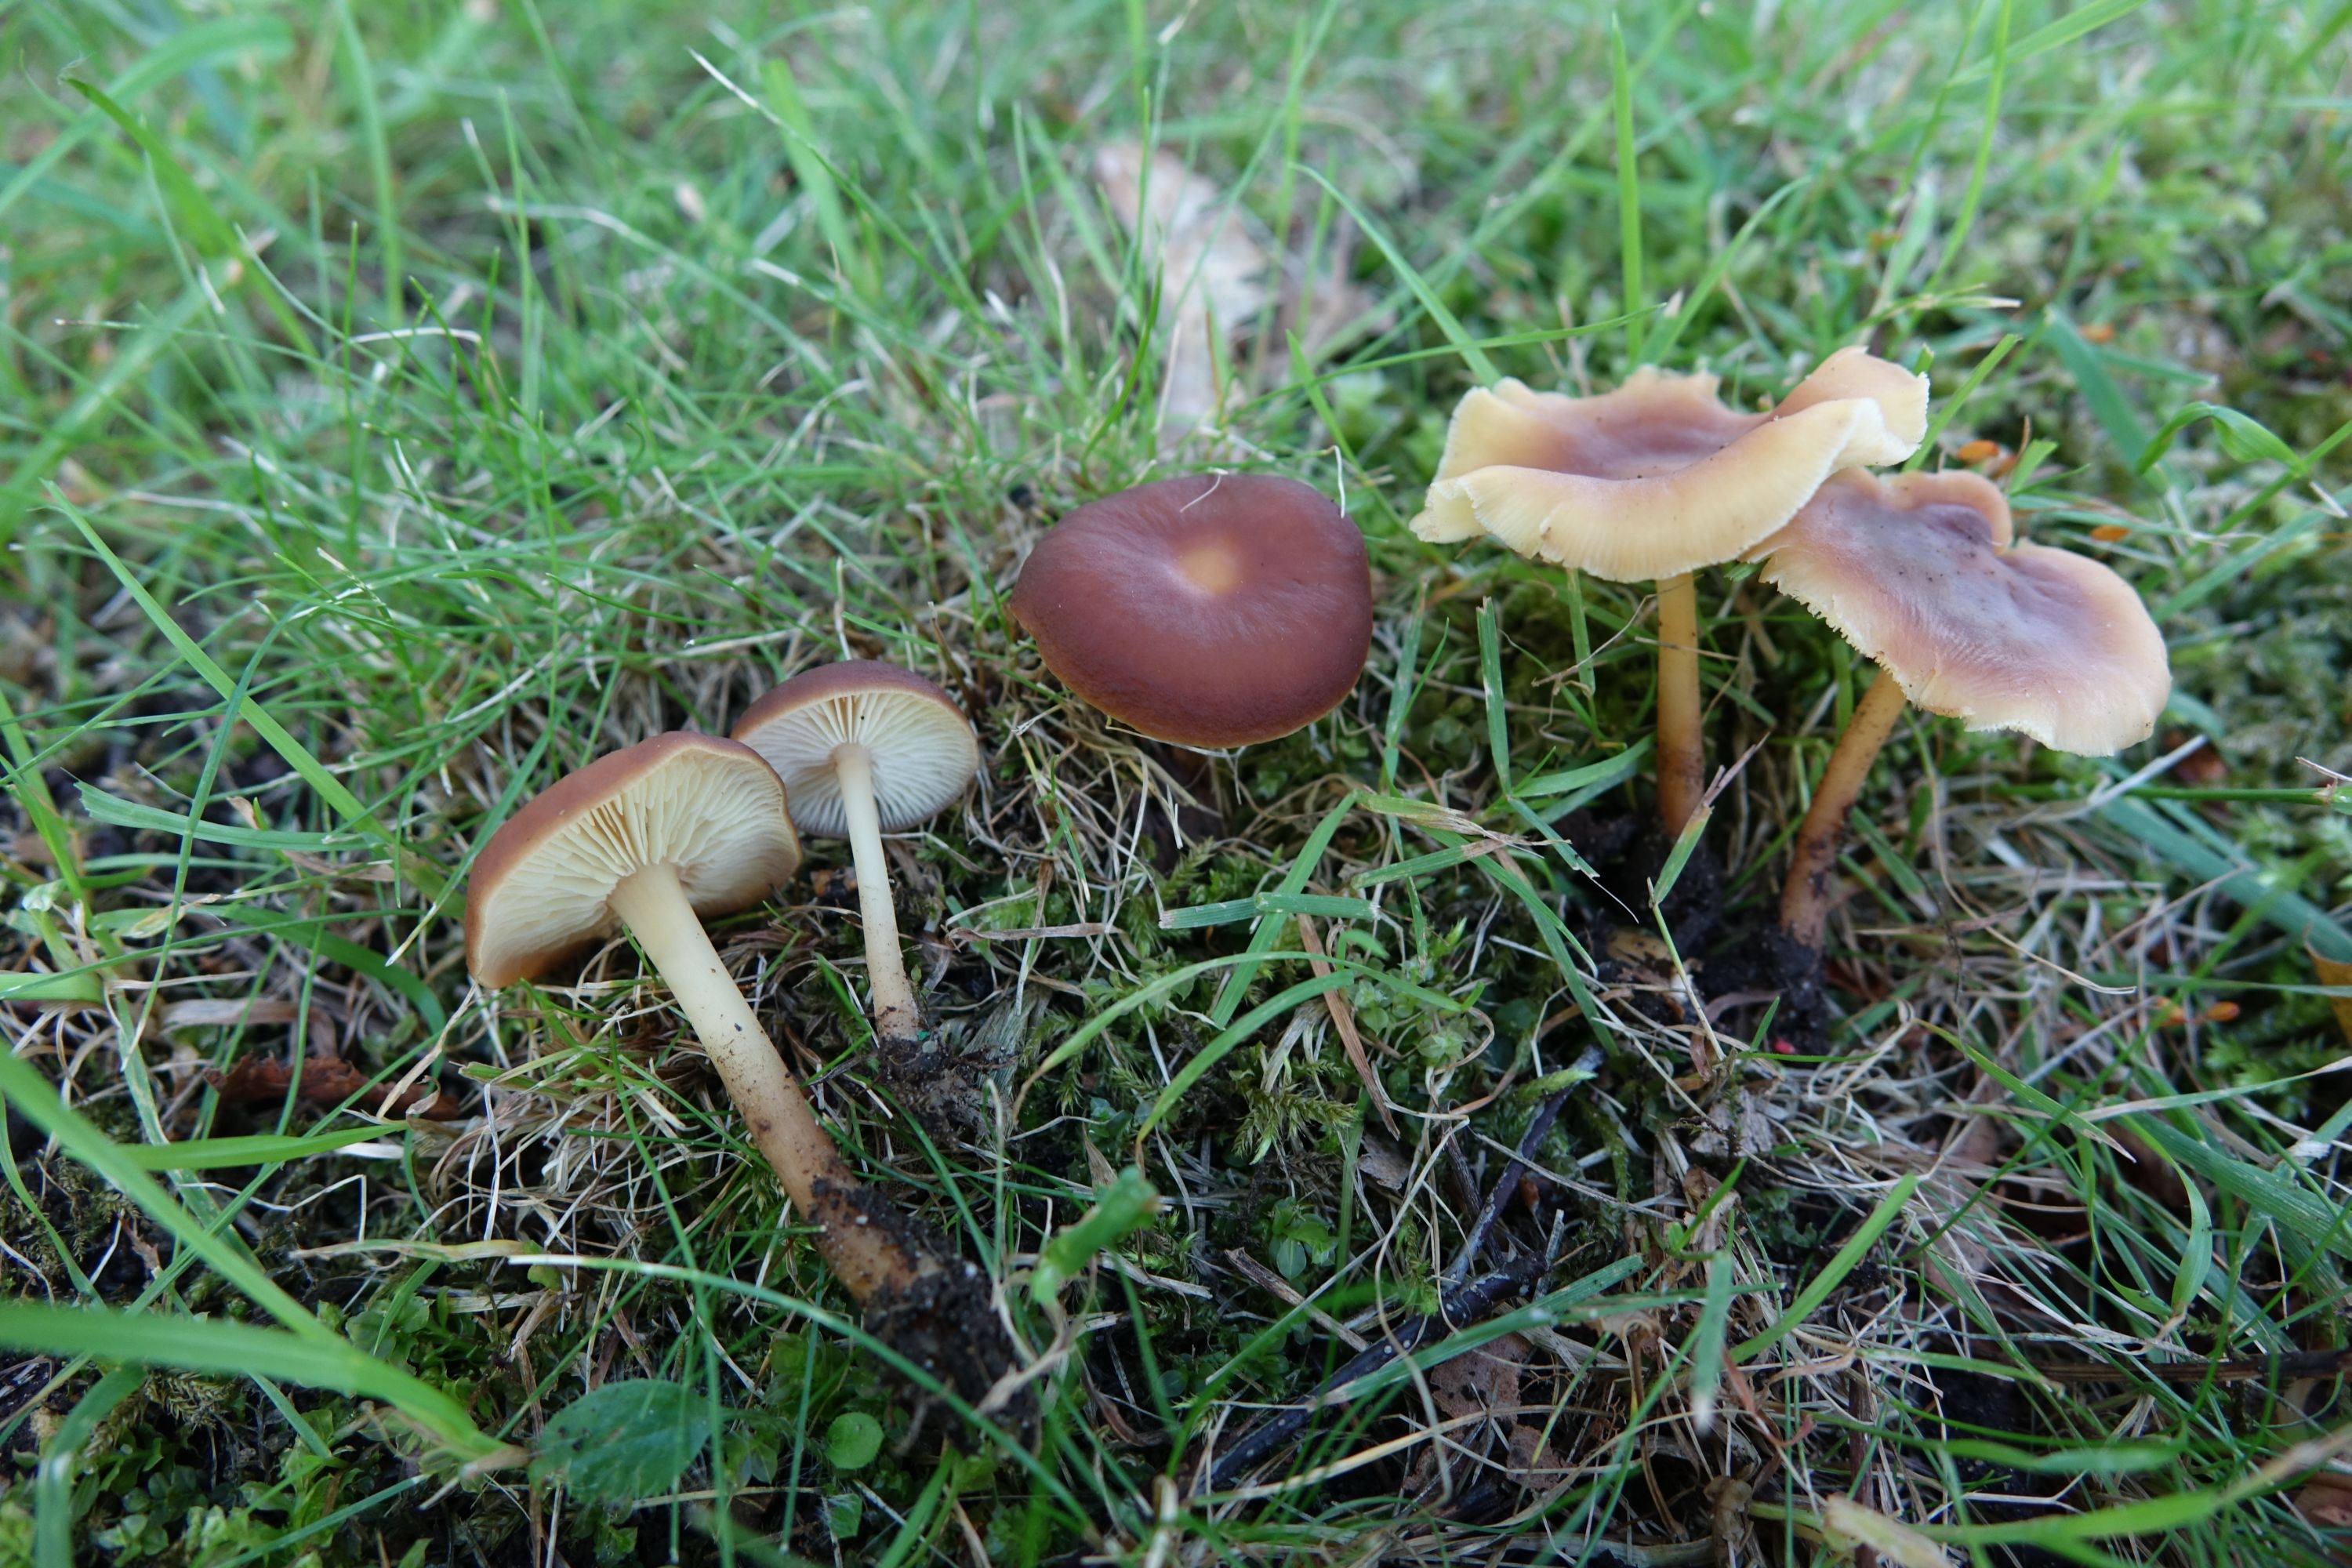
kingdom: Fungi
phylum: Basidiomycota
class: Agaricomycetes
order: Agaricales
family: Omphalotaceae
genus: Gymnopus
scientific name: Gymnopus ocior
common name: Spring toughshank
